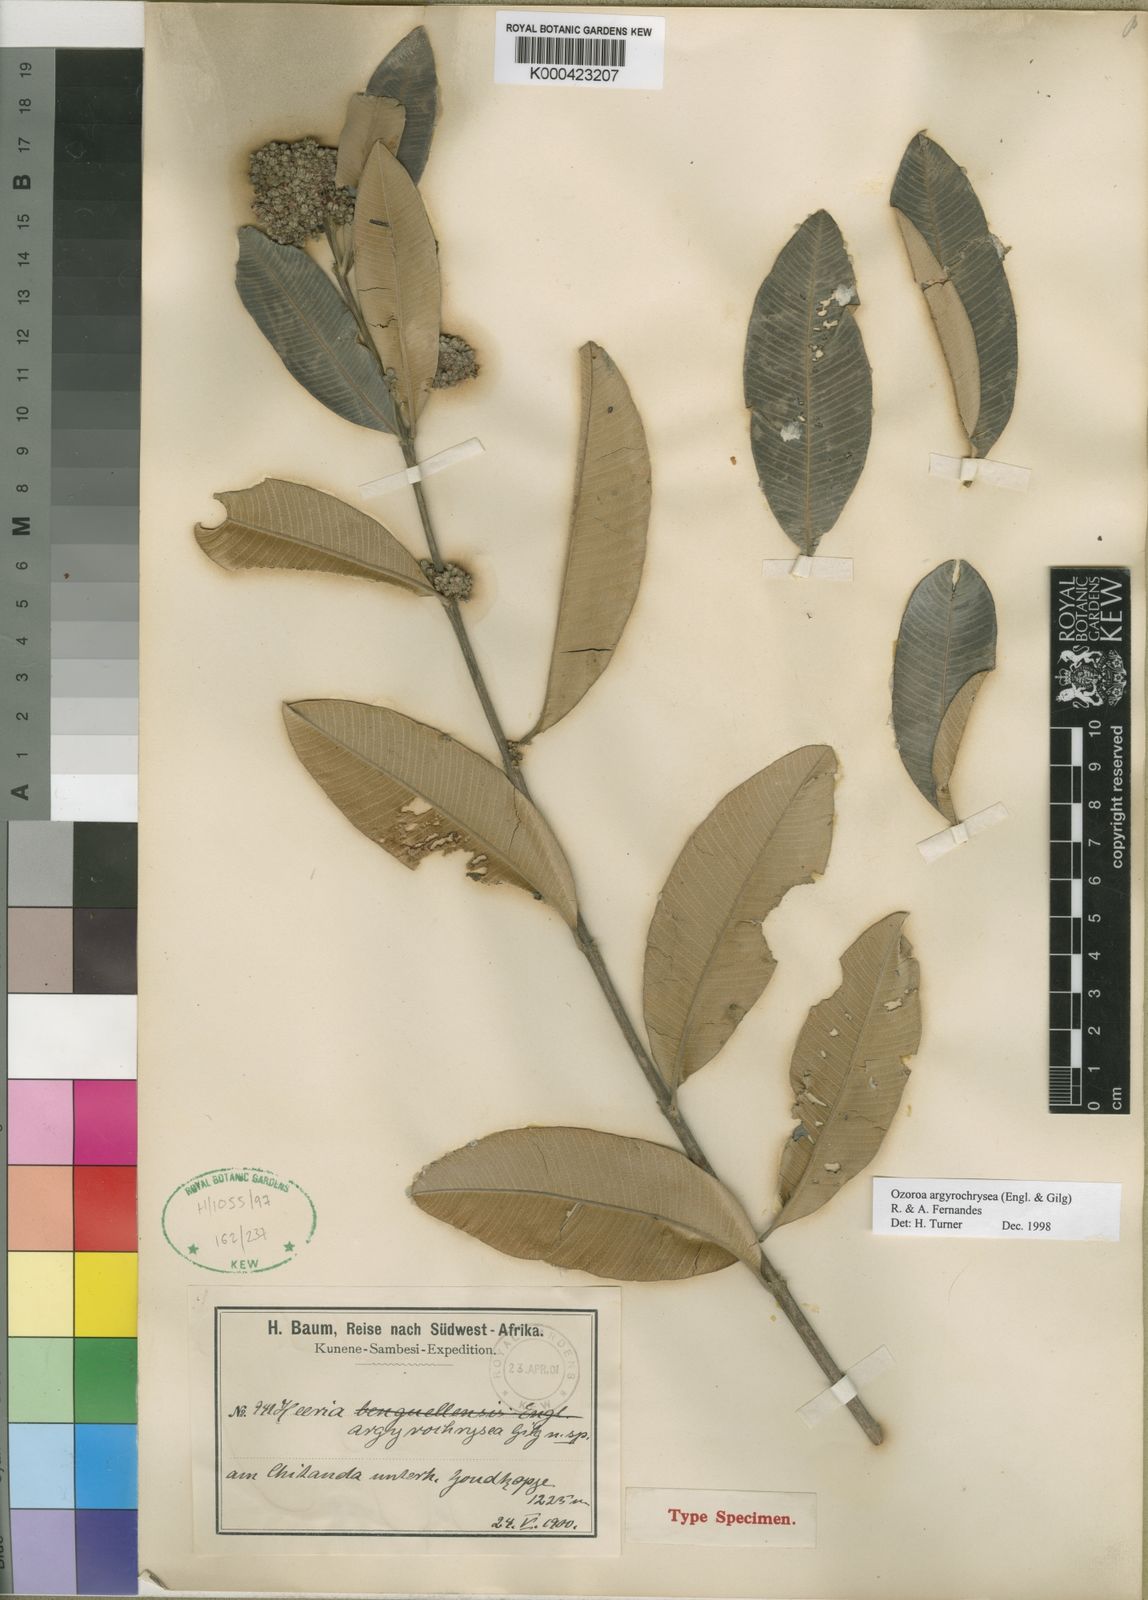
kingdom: Plantae
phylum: Tracheophyta
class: Magnoliopsida
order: Sapindales
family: Anacardiaceae
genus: Ozoroa
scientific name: Ozoroa argyrochrysea
